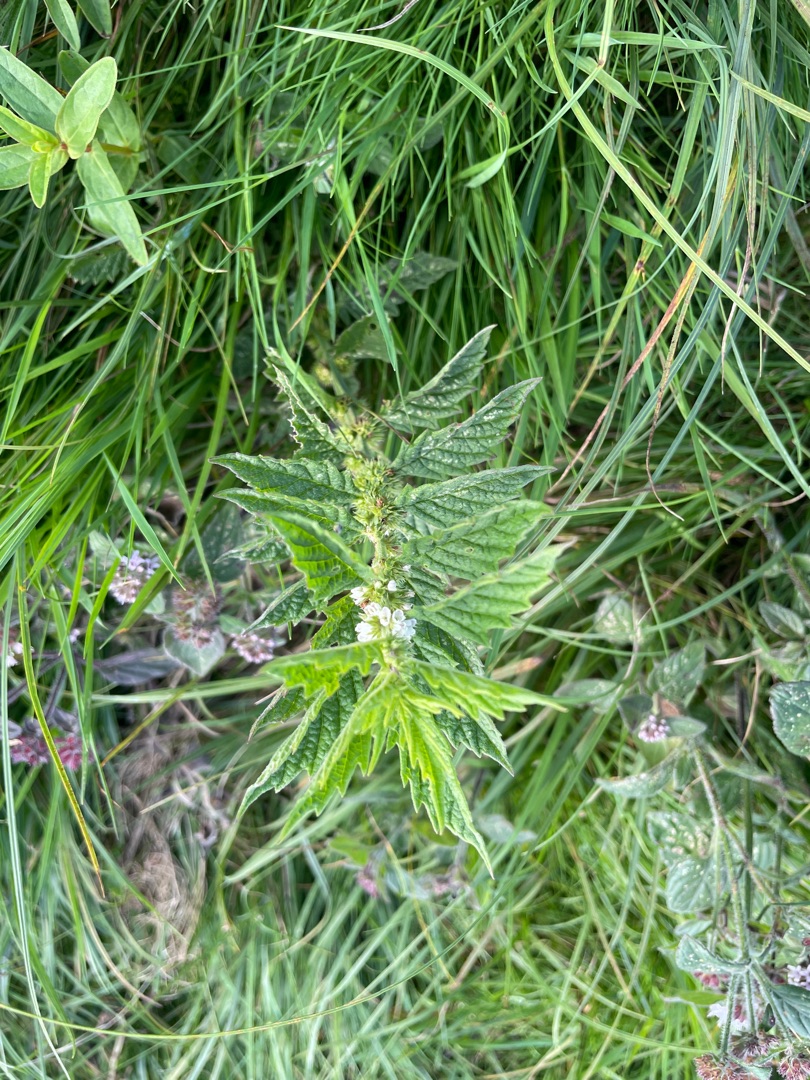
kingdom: Plantae
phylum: Tracheophyta
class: Magnoliopsida
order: Lamiales
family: Lamiaceae
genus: Lycopus
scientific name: Lycopus europaeus
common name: Sværtevæld
